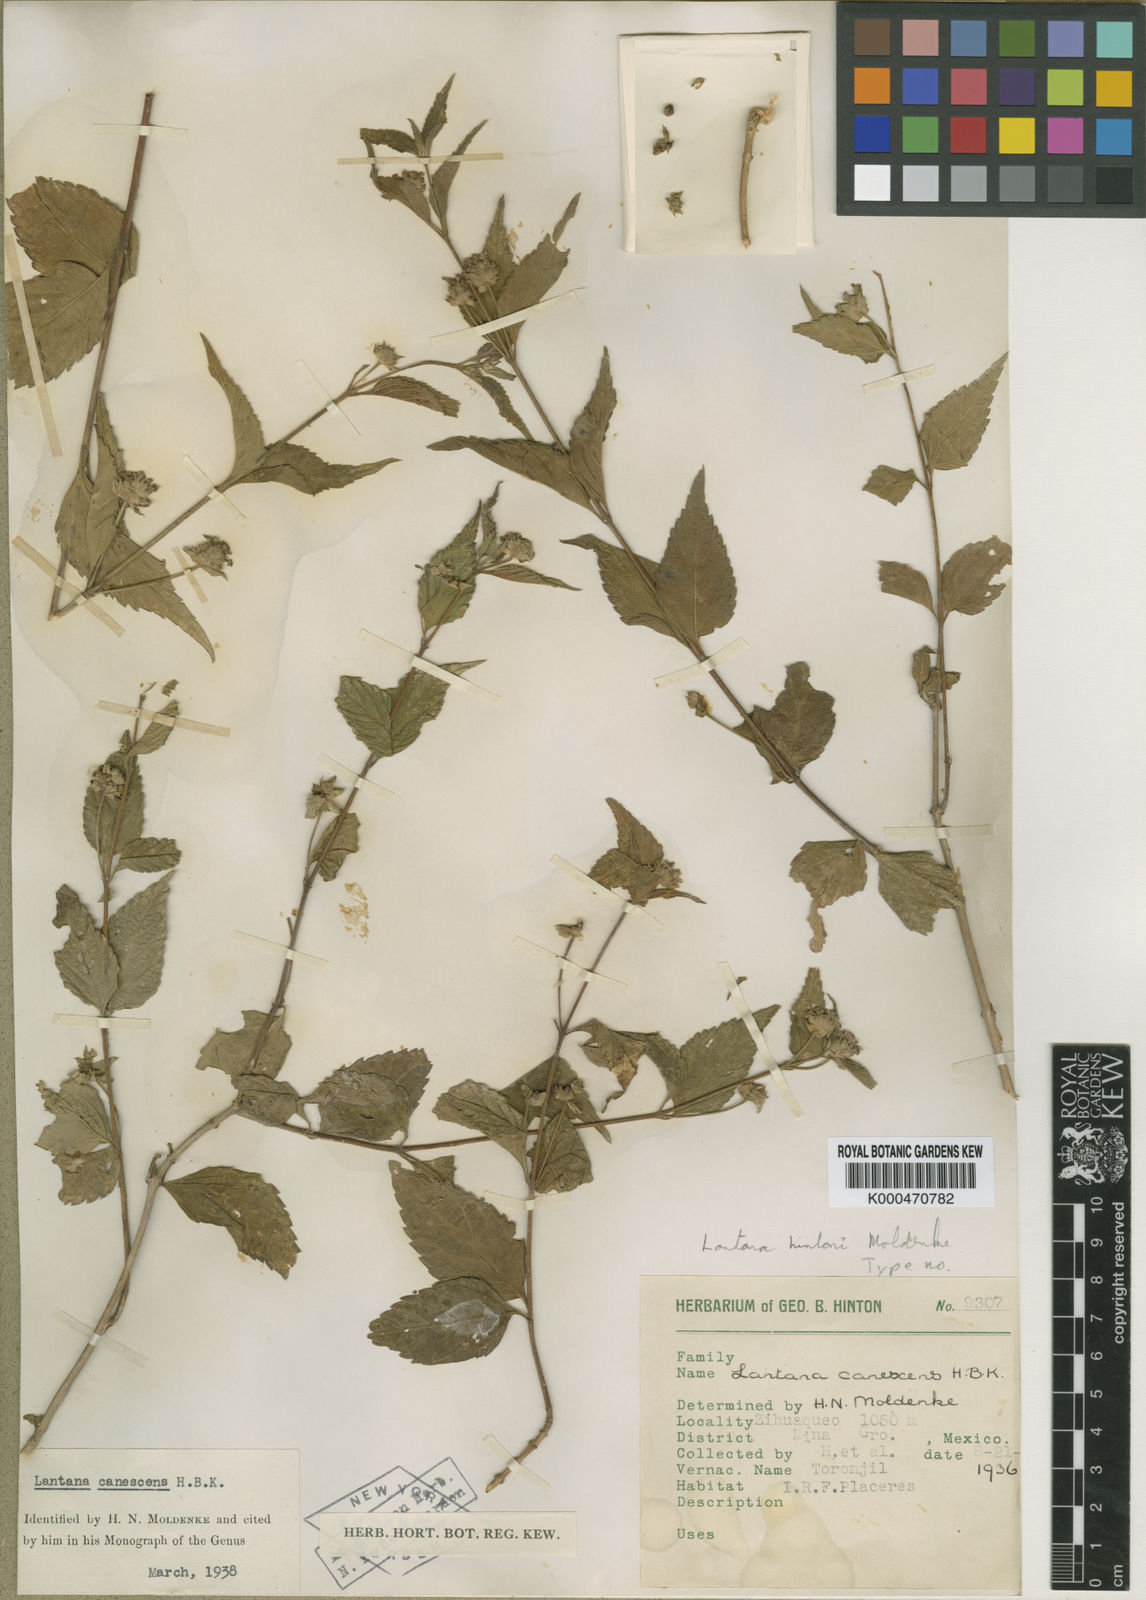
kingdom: Plantae
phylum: Tracheophyta
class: Magnoliopsida
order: Lamiales
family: Verbenaceae
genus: Lantana
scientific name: Lantana hirta
